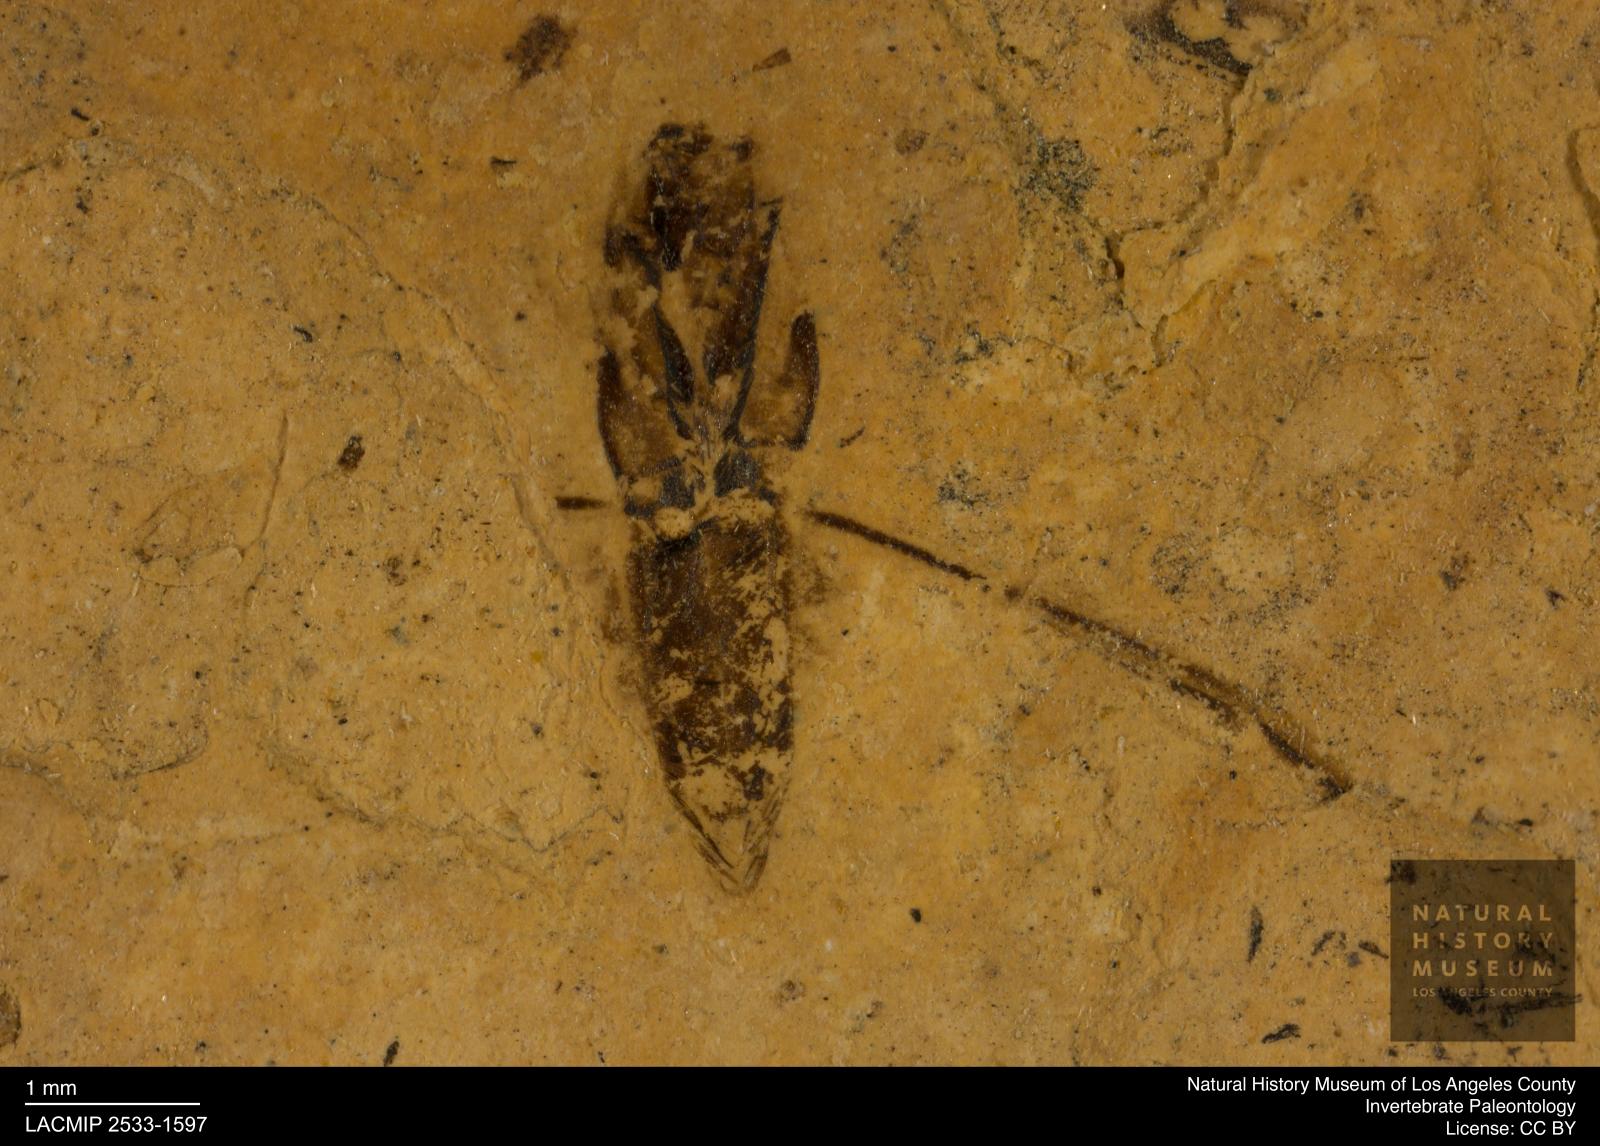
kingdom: Animalia
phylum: Arthropoda
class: Insecta
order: Hemiptera
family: Notonectidae
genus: Notonecta
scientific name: Notonecta
